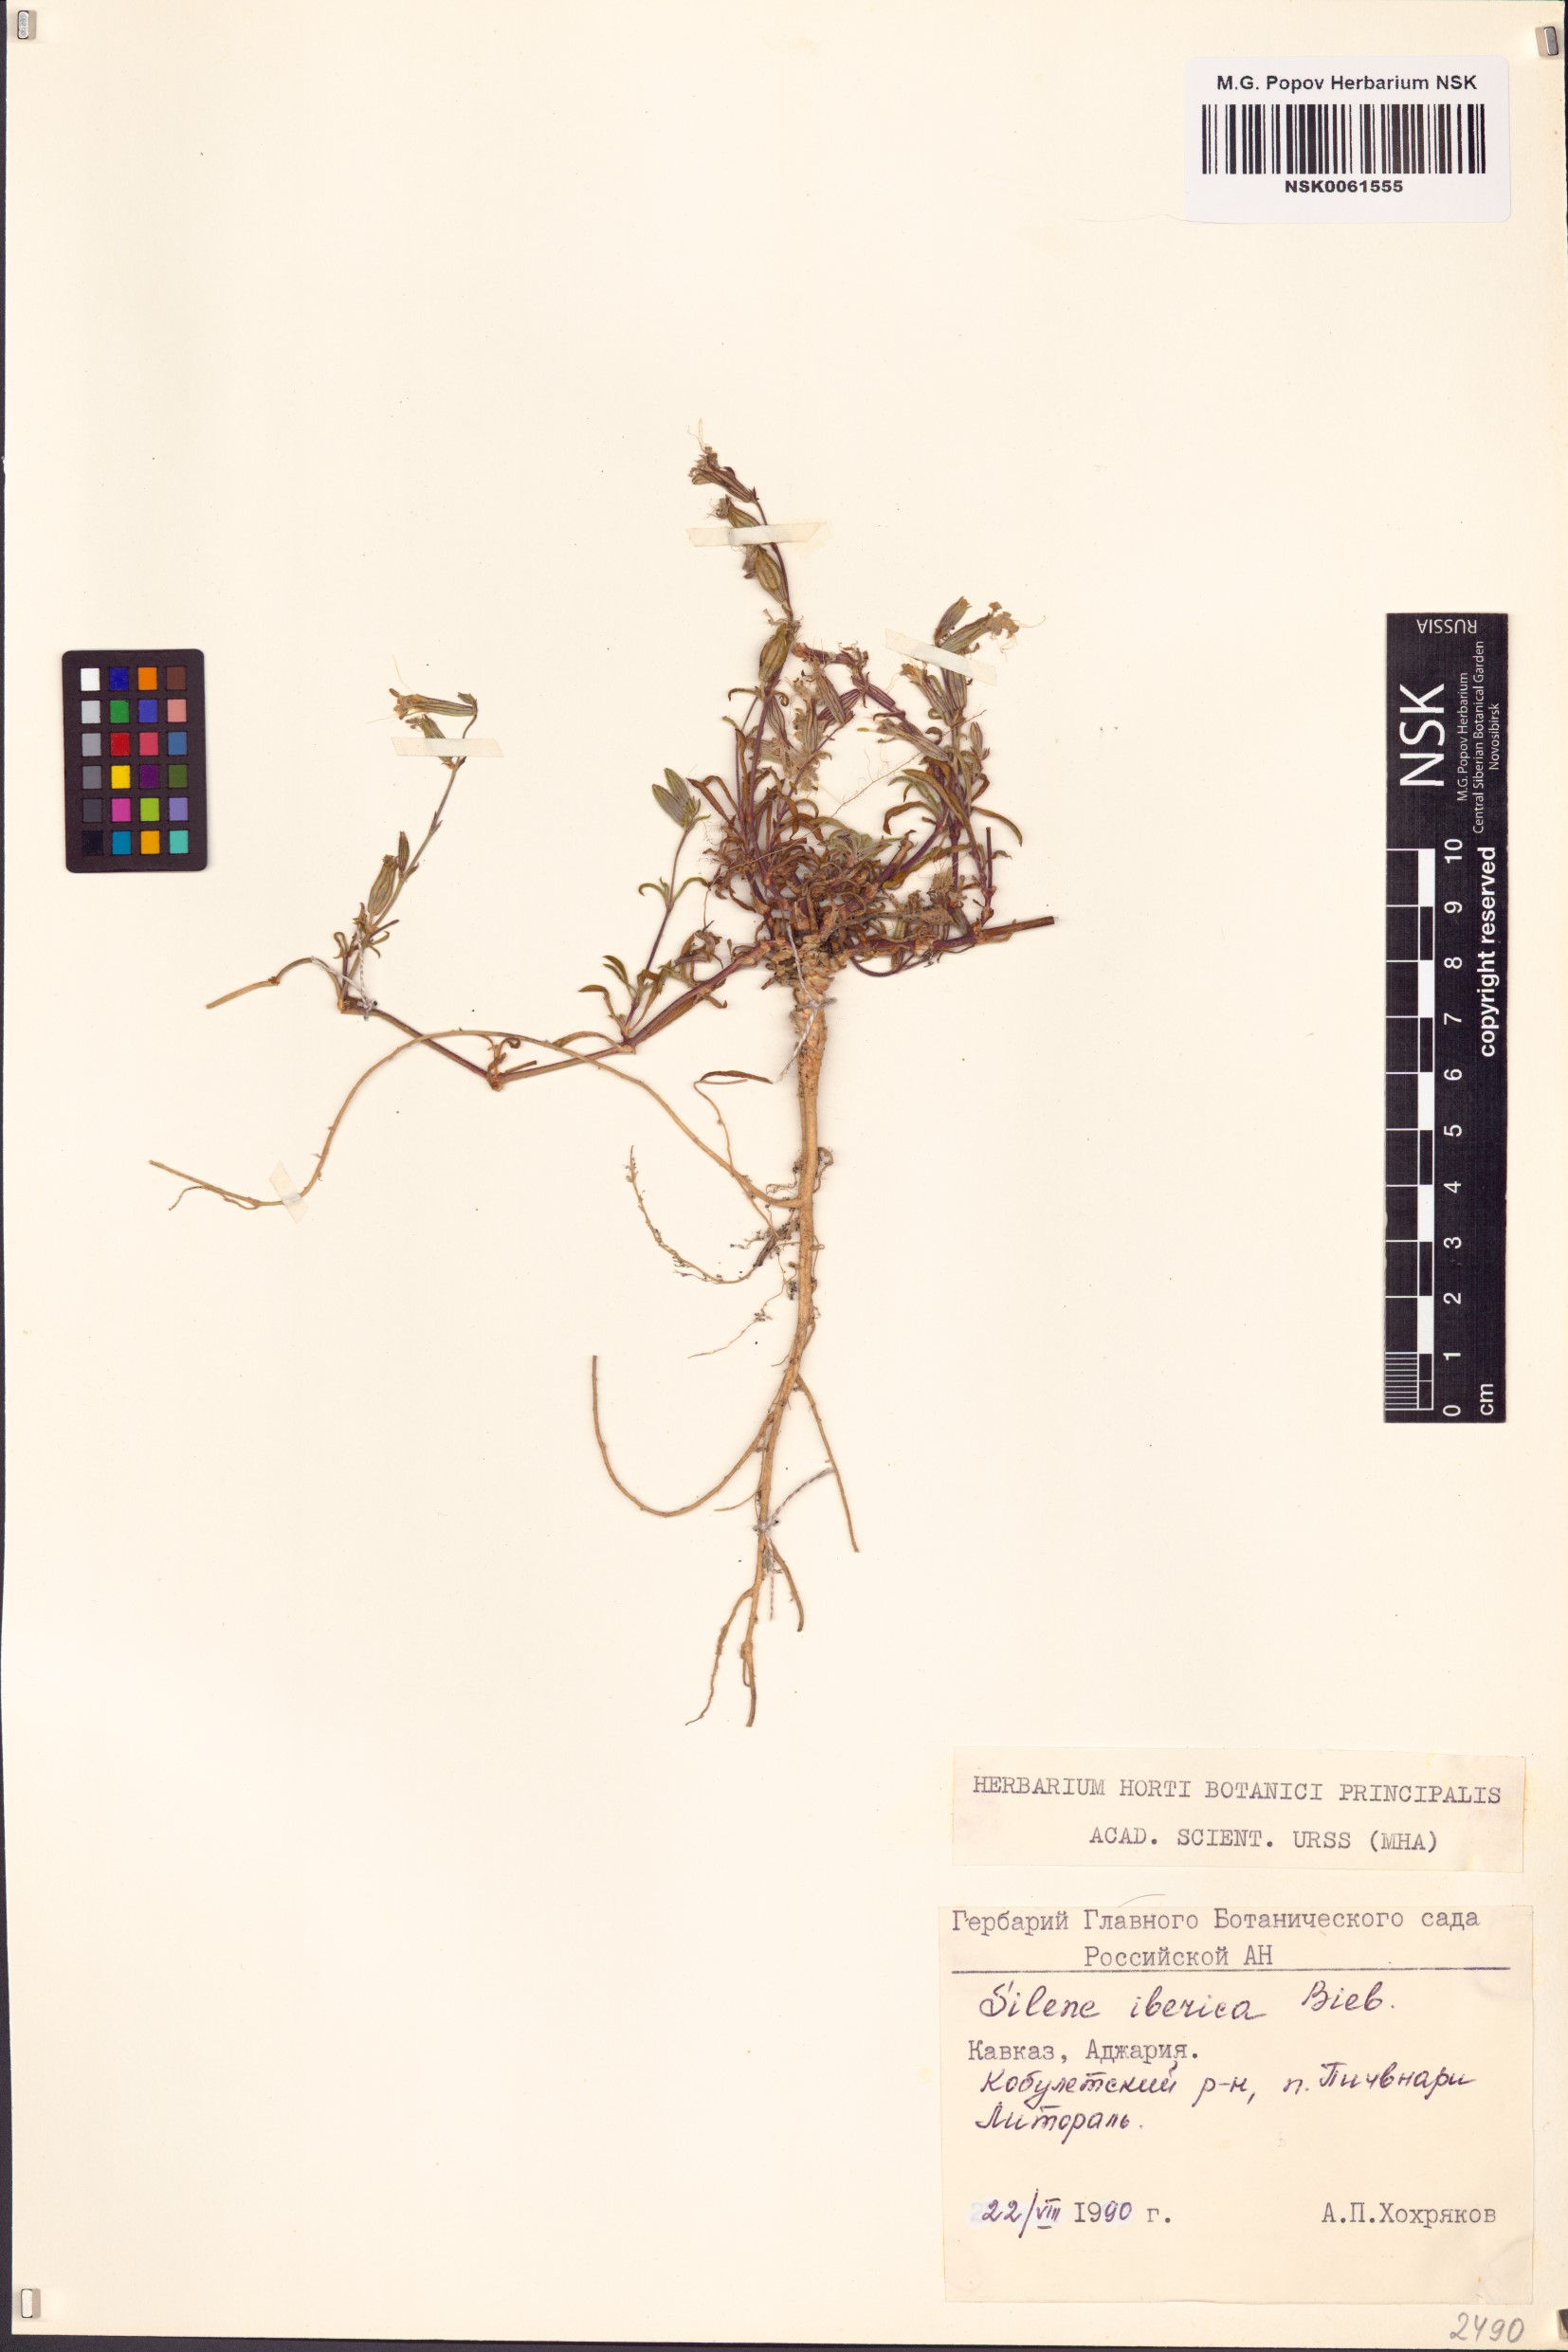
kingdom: Plantae
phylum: Tracheophyta
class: Magnoliopsida
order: Caryophyllales
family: Caryophyllaceae
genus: Silene
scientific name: Silene iberica
